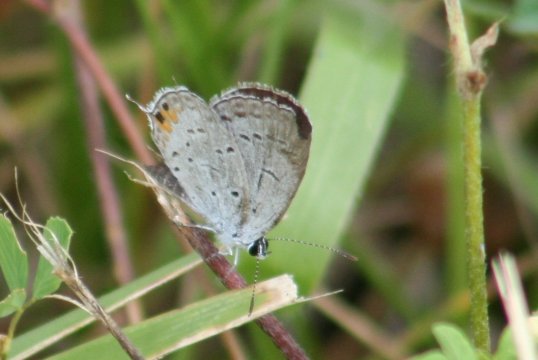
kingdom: Animalia
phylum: Arthropoda
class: Insecta
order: Lepidoptera
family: Lycaenidae
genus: Elkalyce
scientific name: Elkalyce comyntas
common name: Eastern Tailed-Blue
